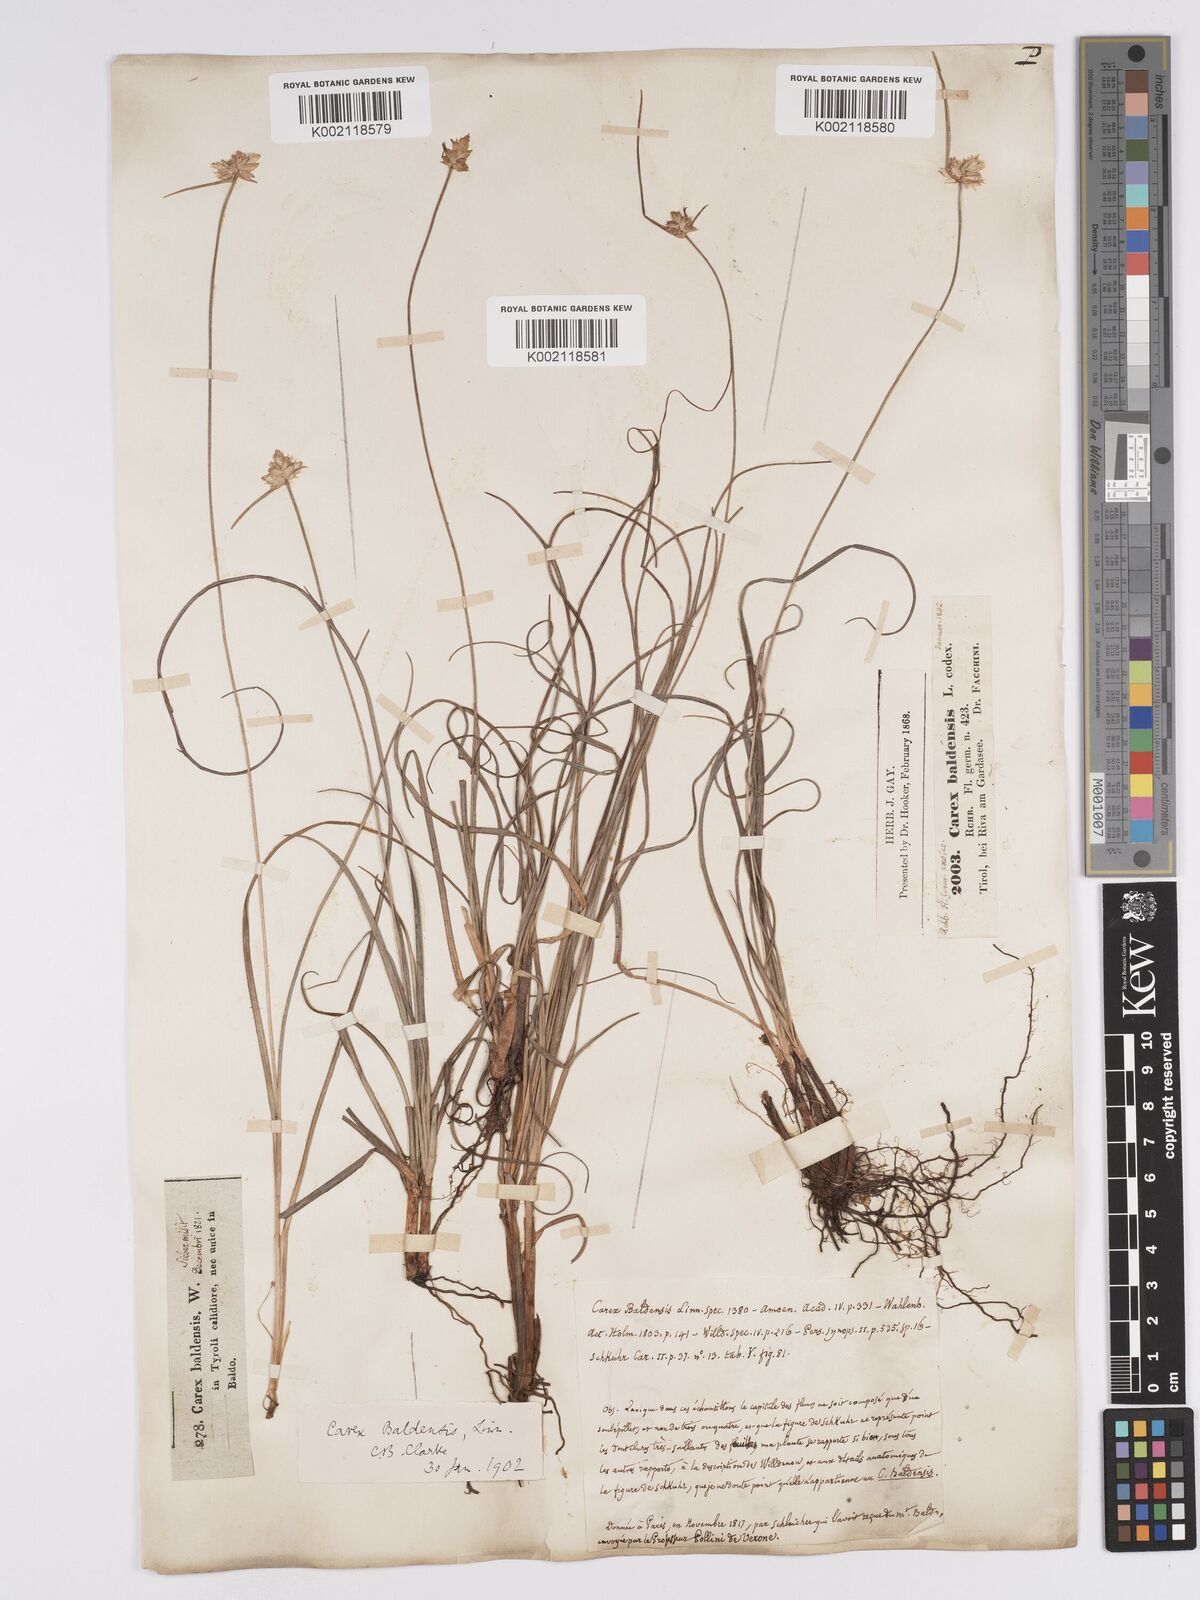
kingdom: Plantae
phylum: Tracheophyta
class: Liliopsida
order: Poales
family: Cyperaceae
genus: Carex
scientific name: Carex baldensis
